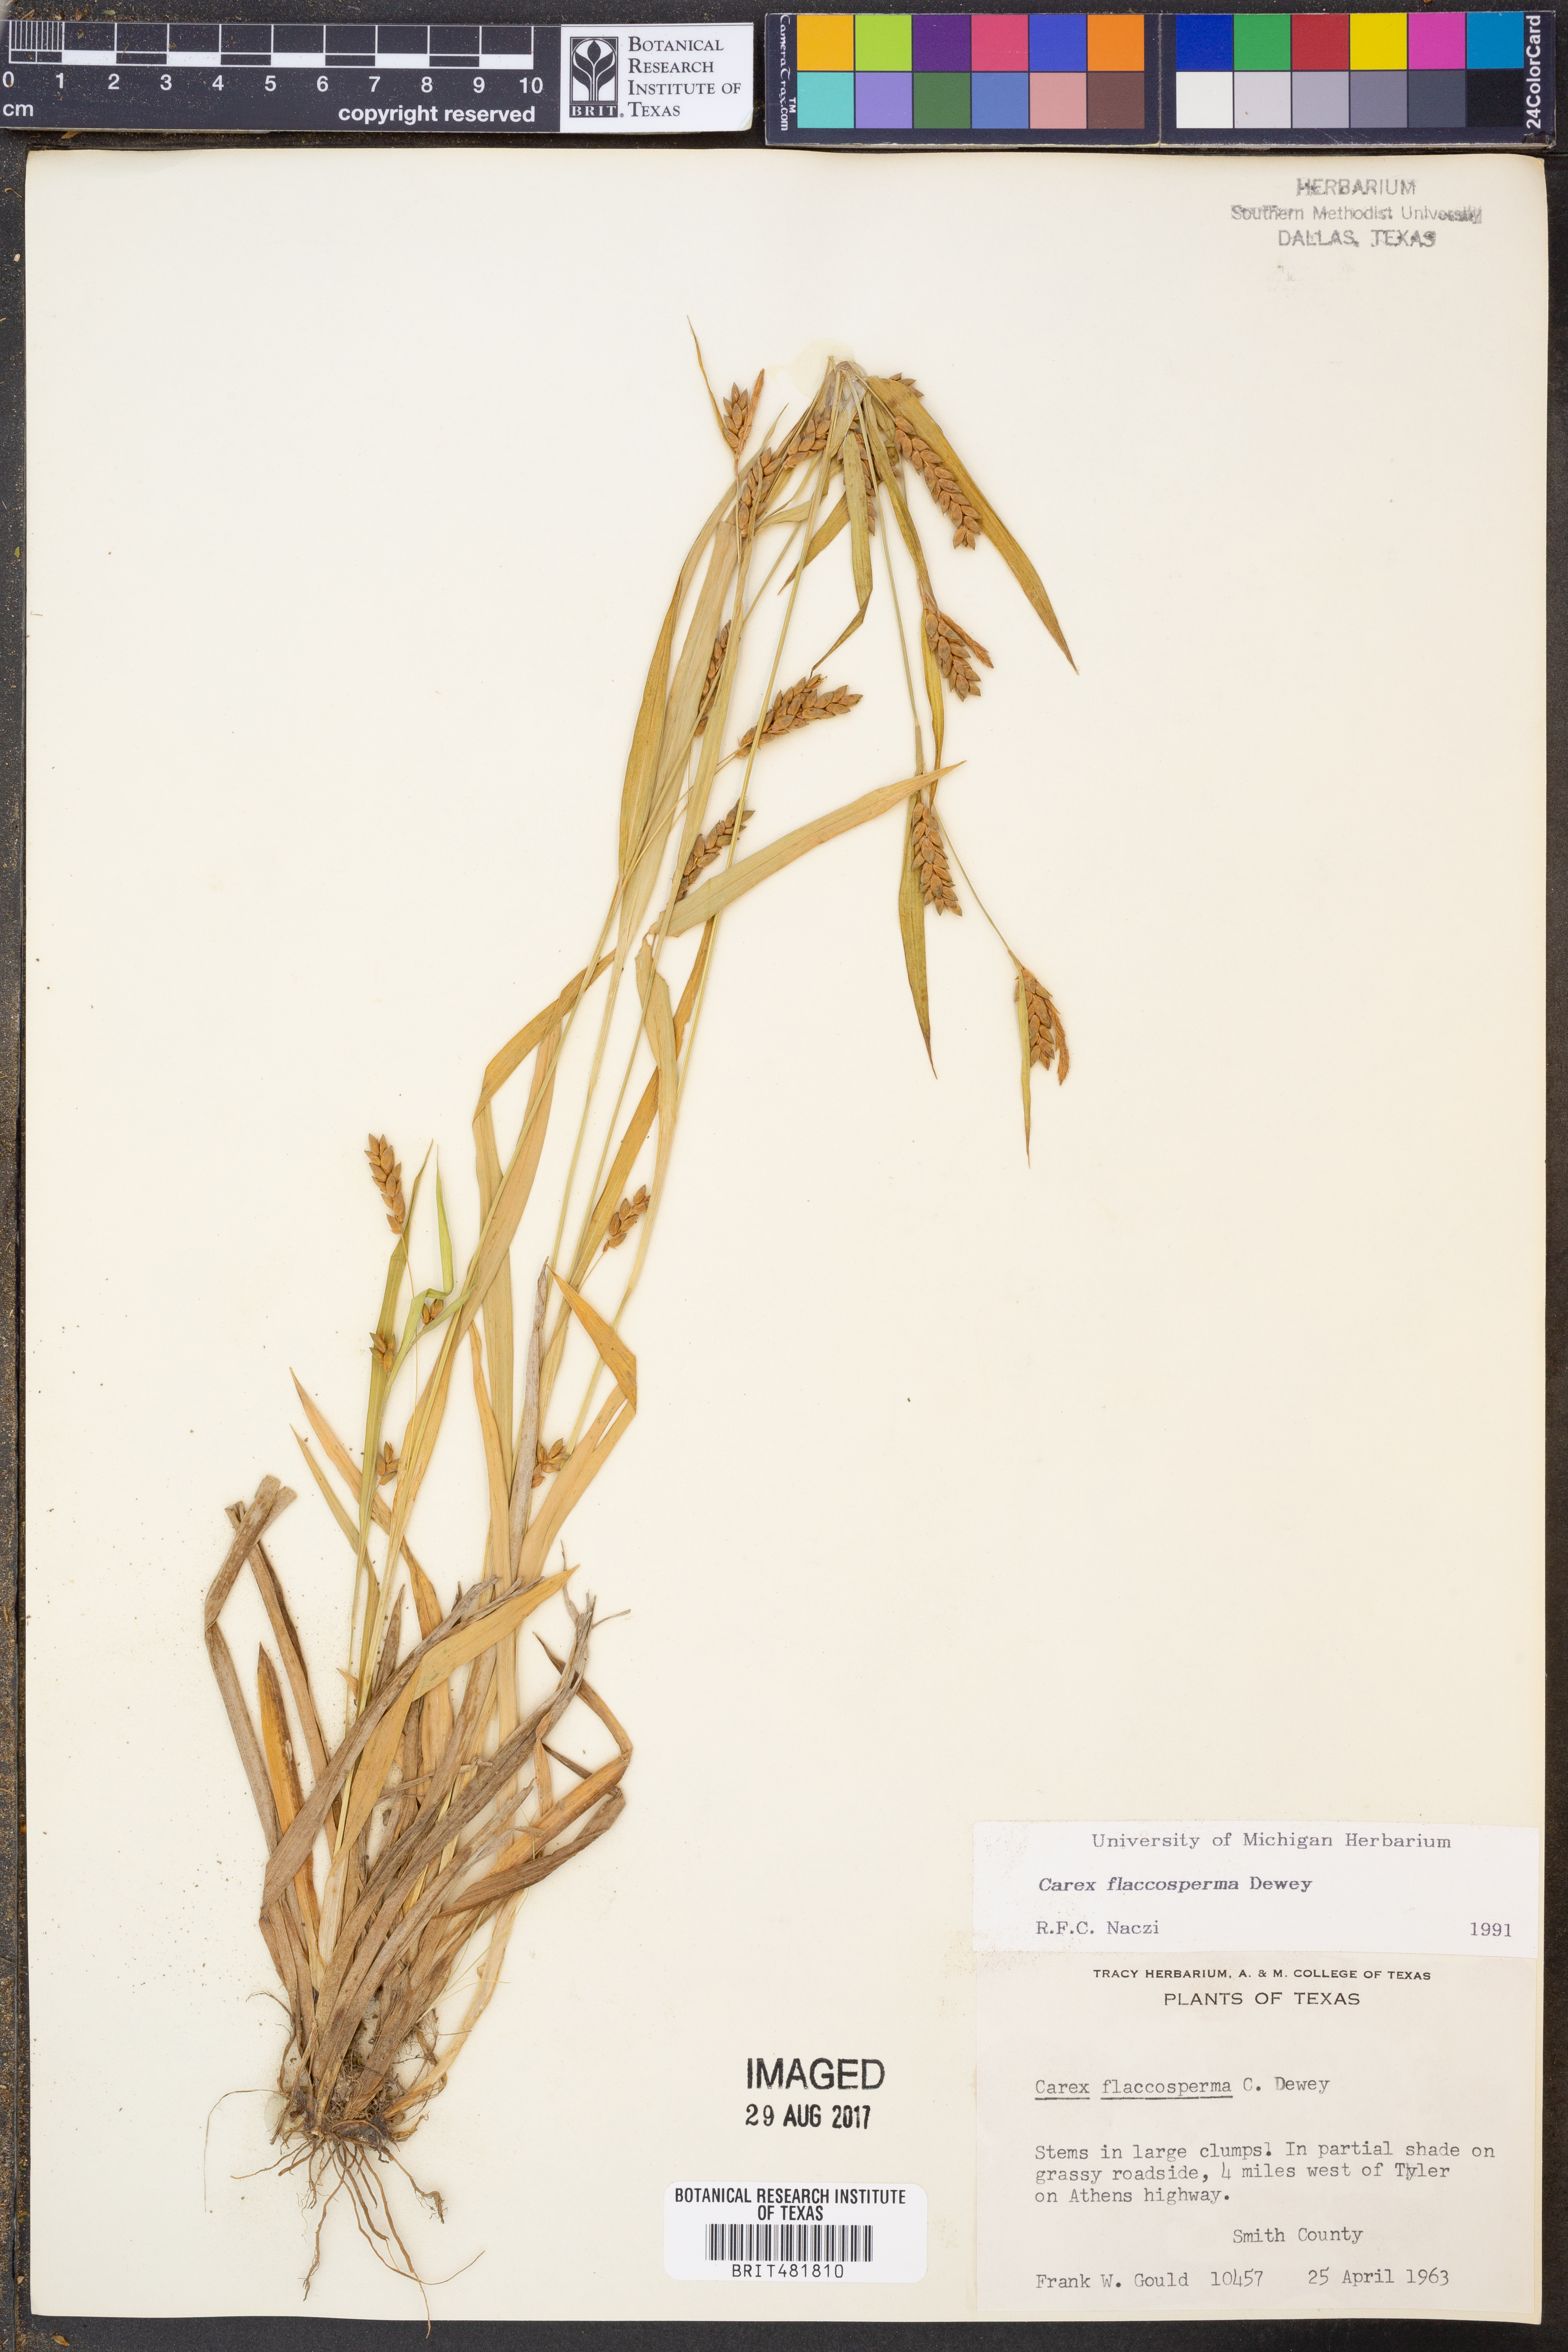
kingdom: Plantae
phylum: Tracheophyta
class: Liliopsida
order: Poales
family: Cyperaceae
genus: Carex
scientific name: Carex flaccosperma
